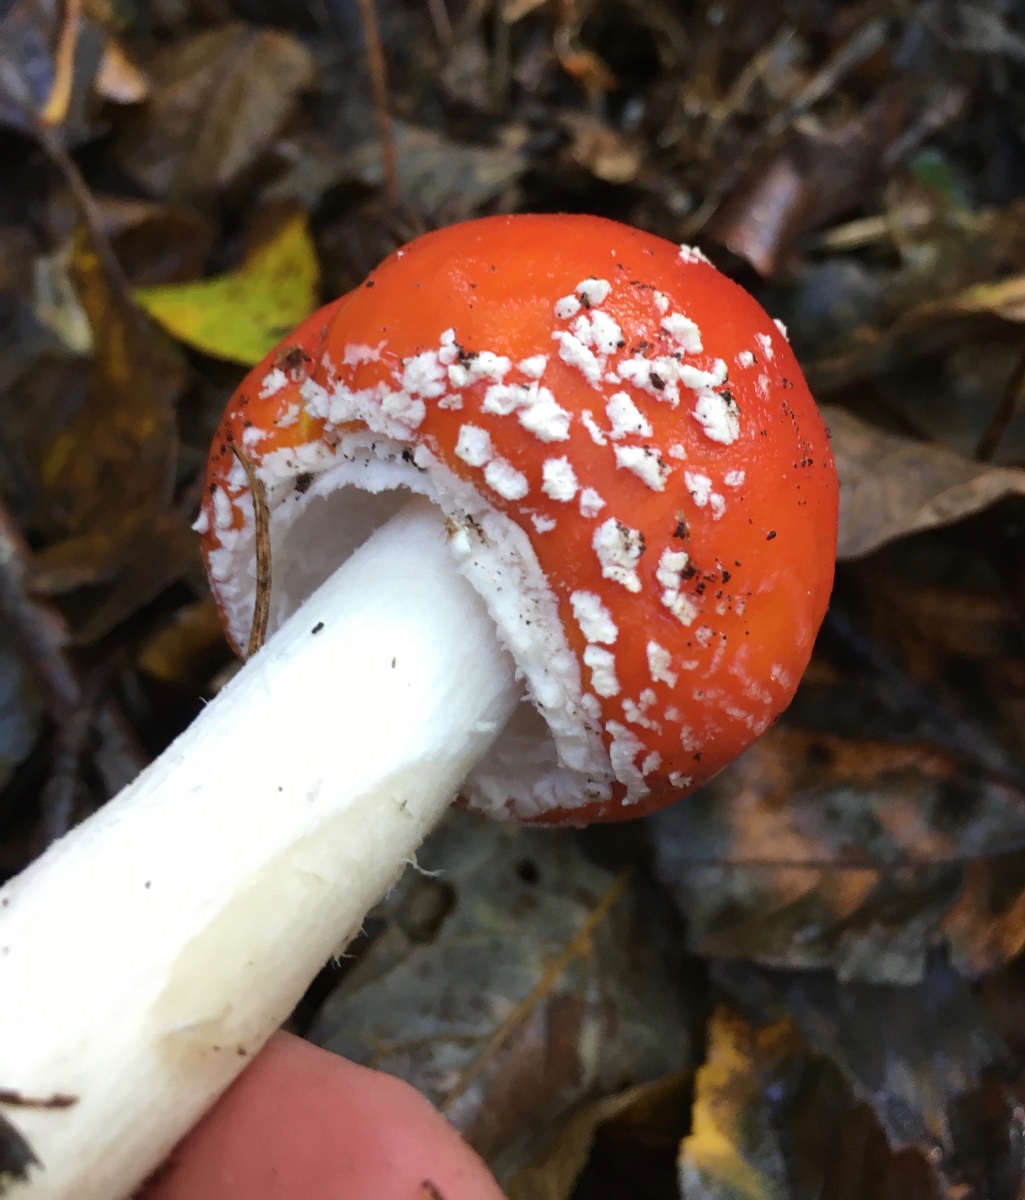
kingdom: Fungi
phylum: Basidiomycota
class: Agaricomycetes
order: Agaricales
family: Amanitaceae
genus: Amanita
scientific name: Amanita muscaria
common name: rød fluesvamp
